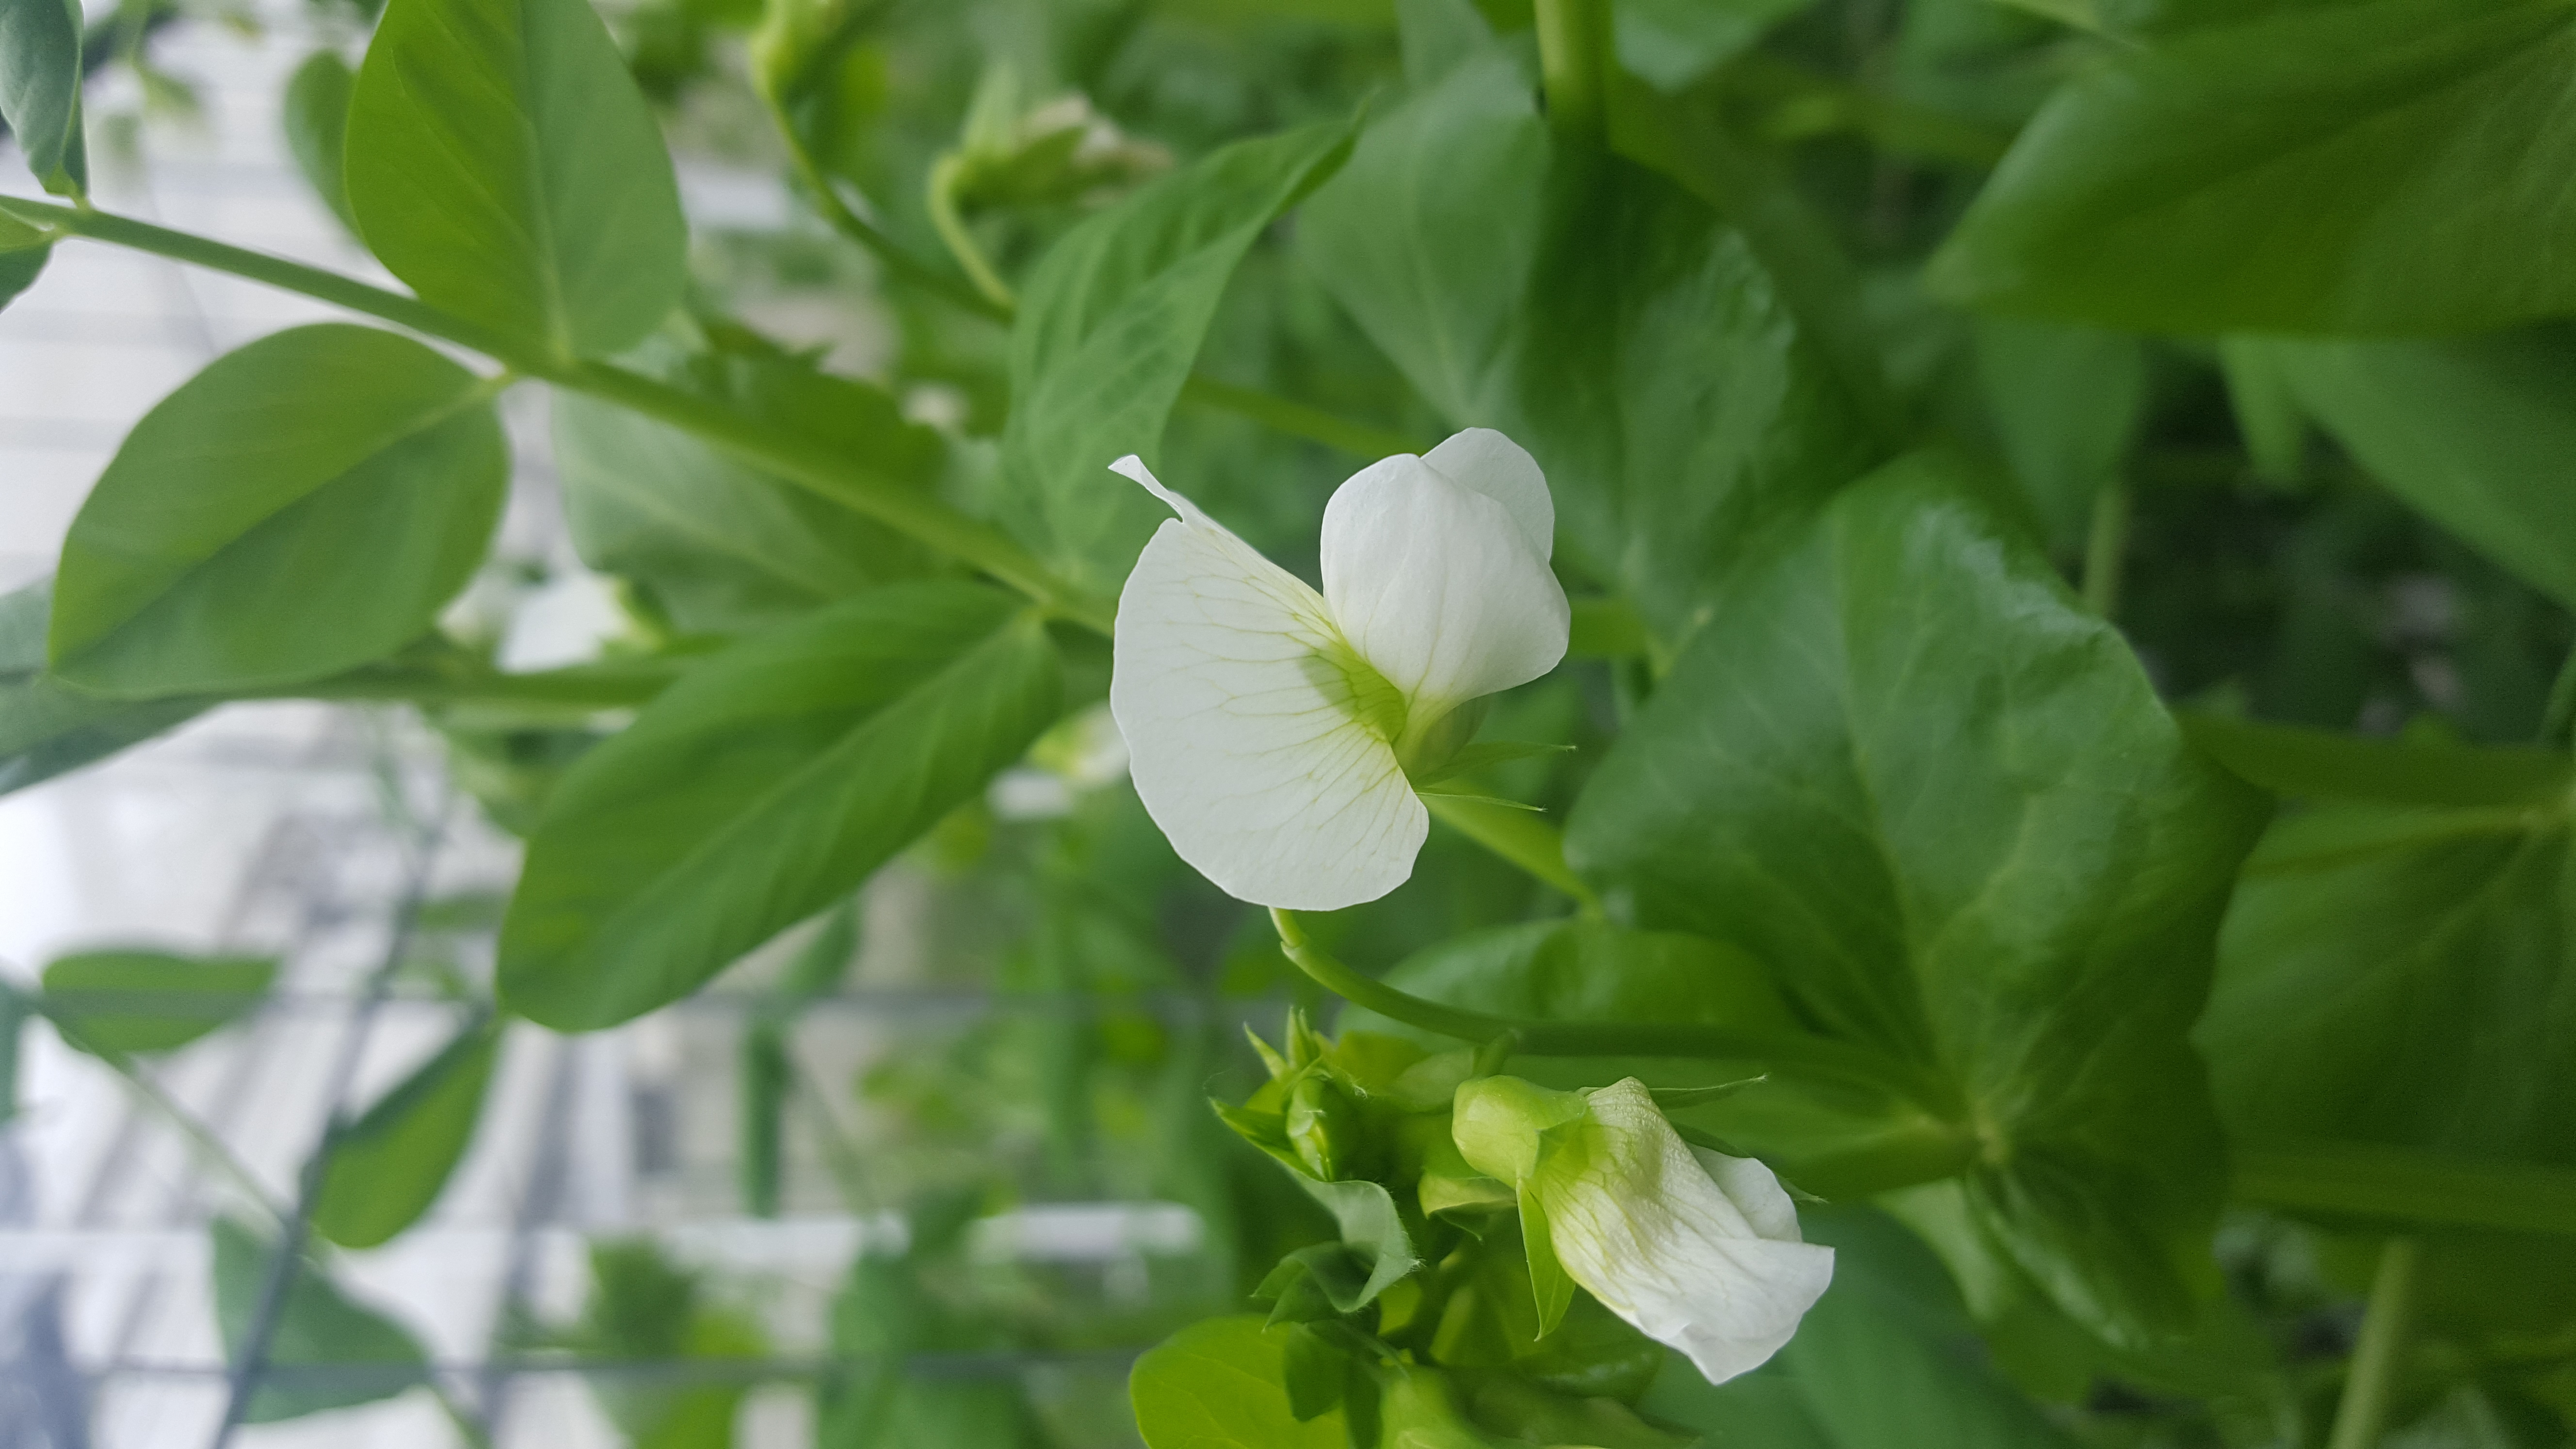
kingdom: Plantae
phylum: Tracheophyta
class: Magnoliopsida
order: Fabales
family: Fabaceae
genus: Lathyrus
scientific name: Lathyrus oleraceus
